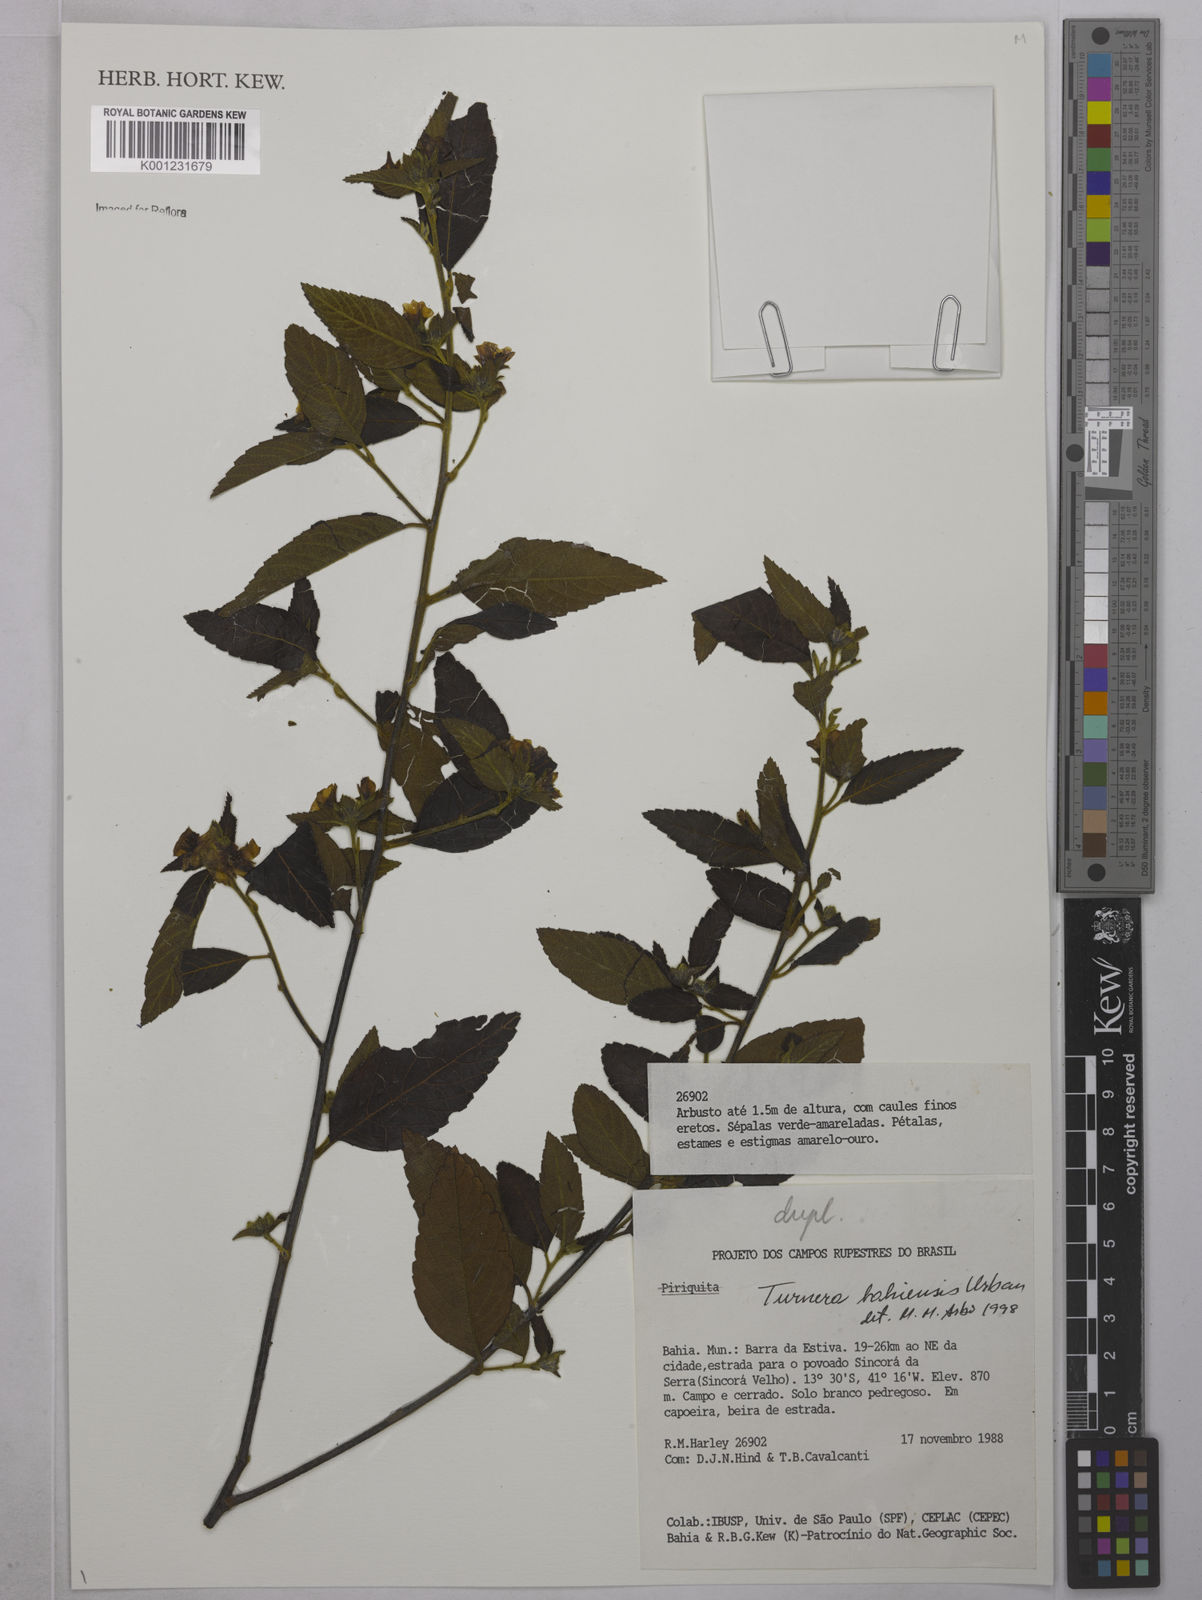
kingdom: Plantae
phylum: Tracheophyta
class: Magnoliopsida
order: Malpighiales
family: Turneraceae
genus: Turnera
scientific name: Turnera bahiensis
